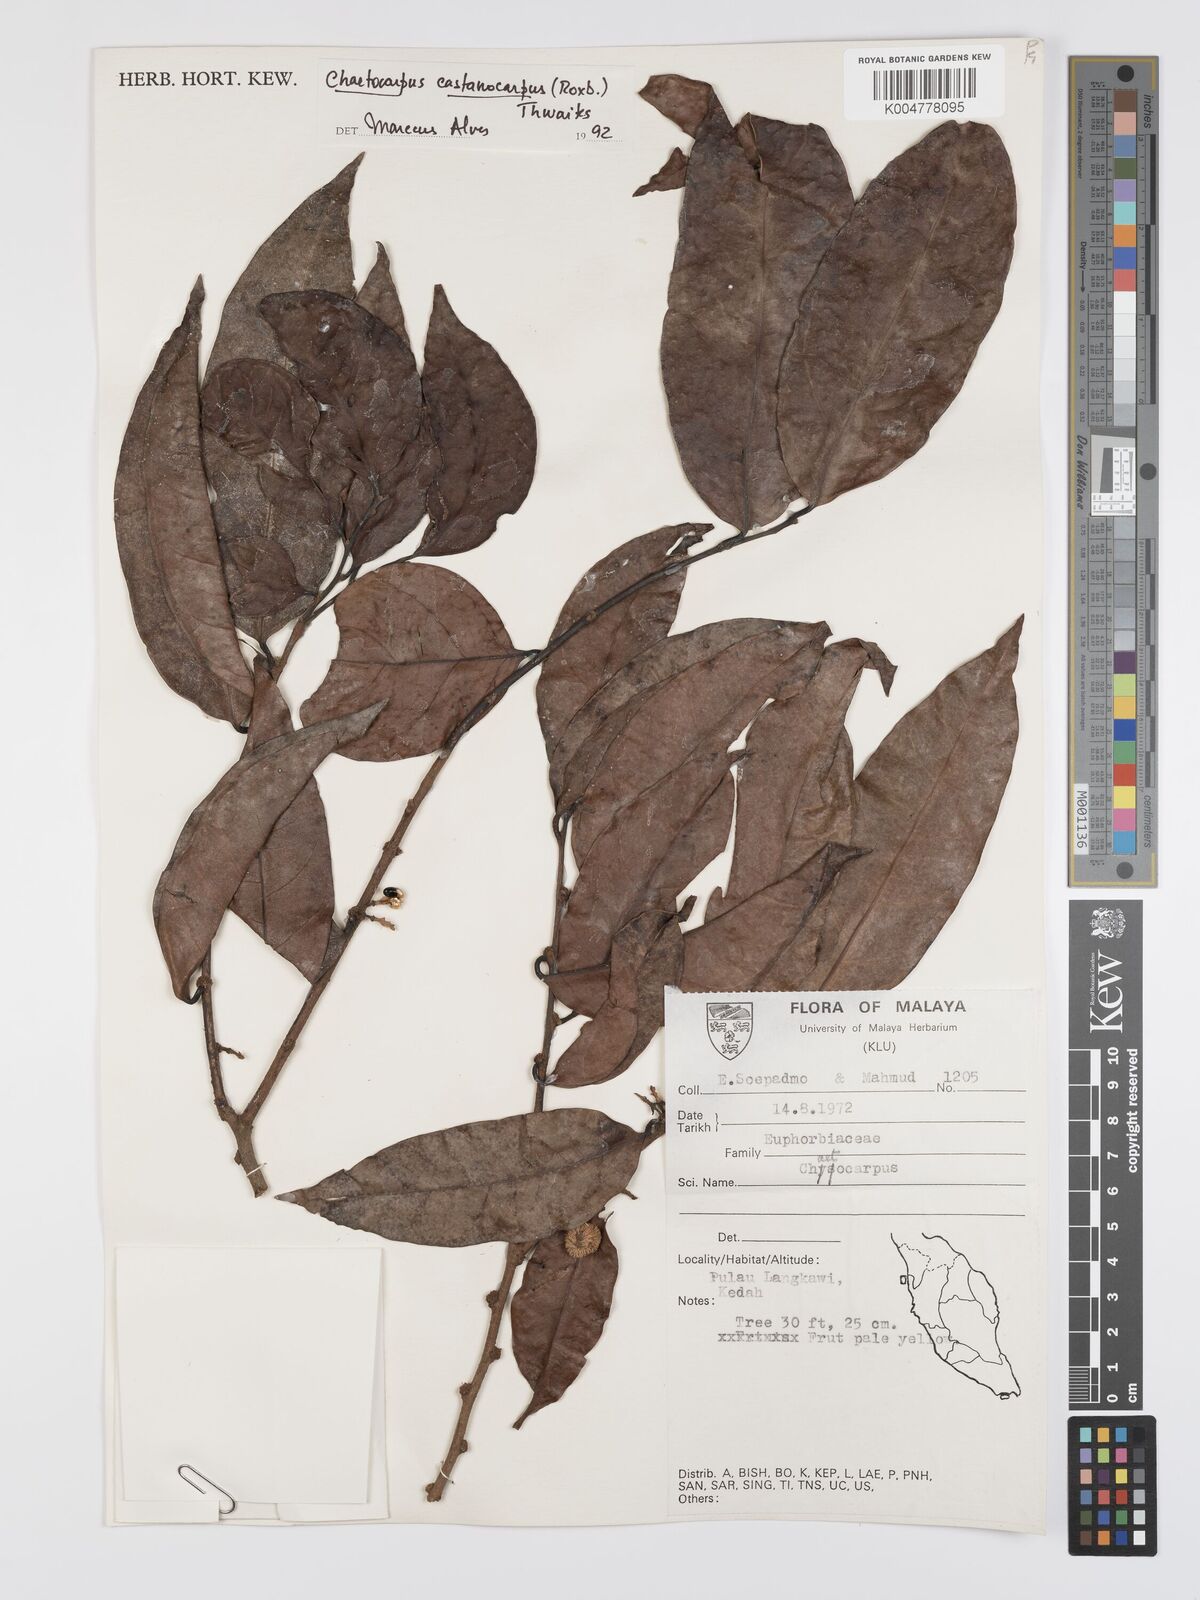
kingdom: Plantae
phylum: Tracheophyta
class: Magnoliopsida
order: Malpighiales
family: Peraceae
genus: Chaetocarpus
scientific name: Chaetocarpus castanocarpus
